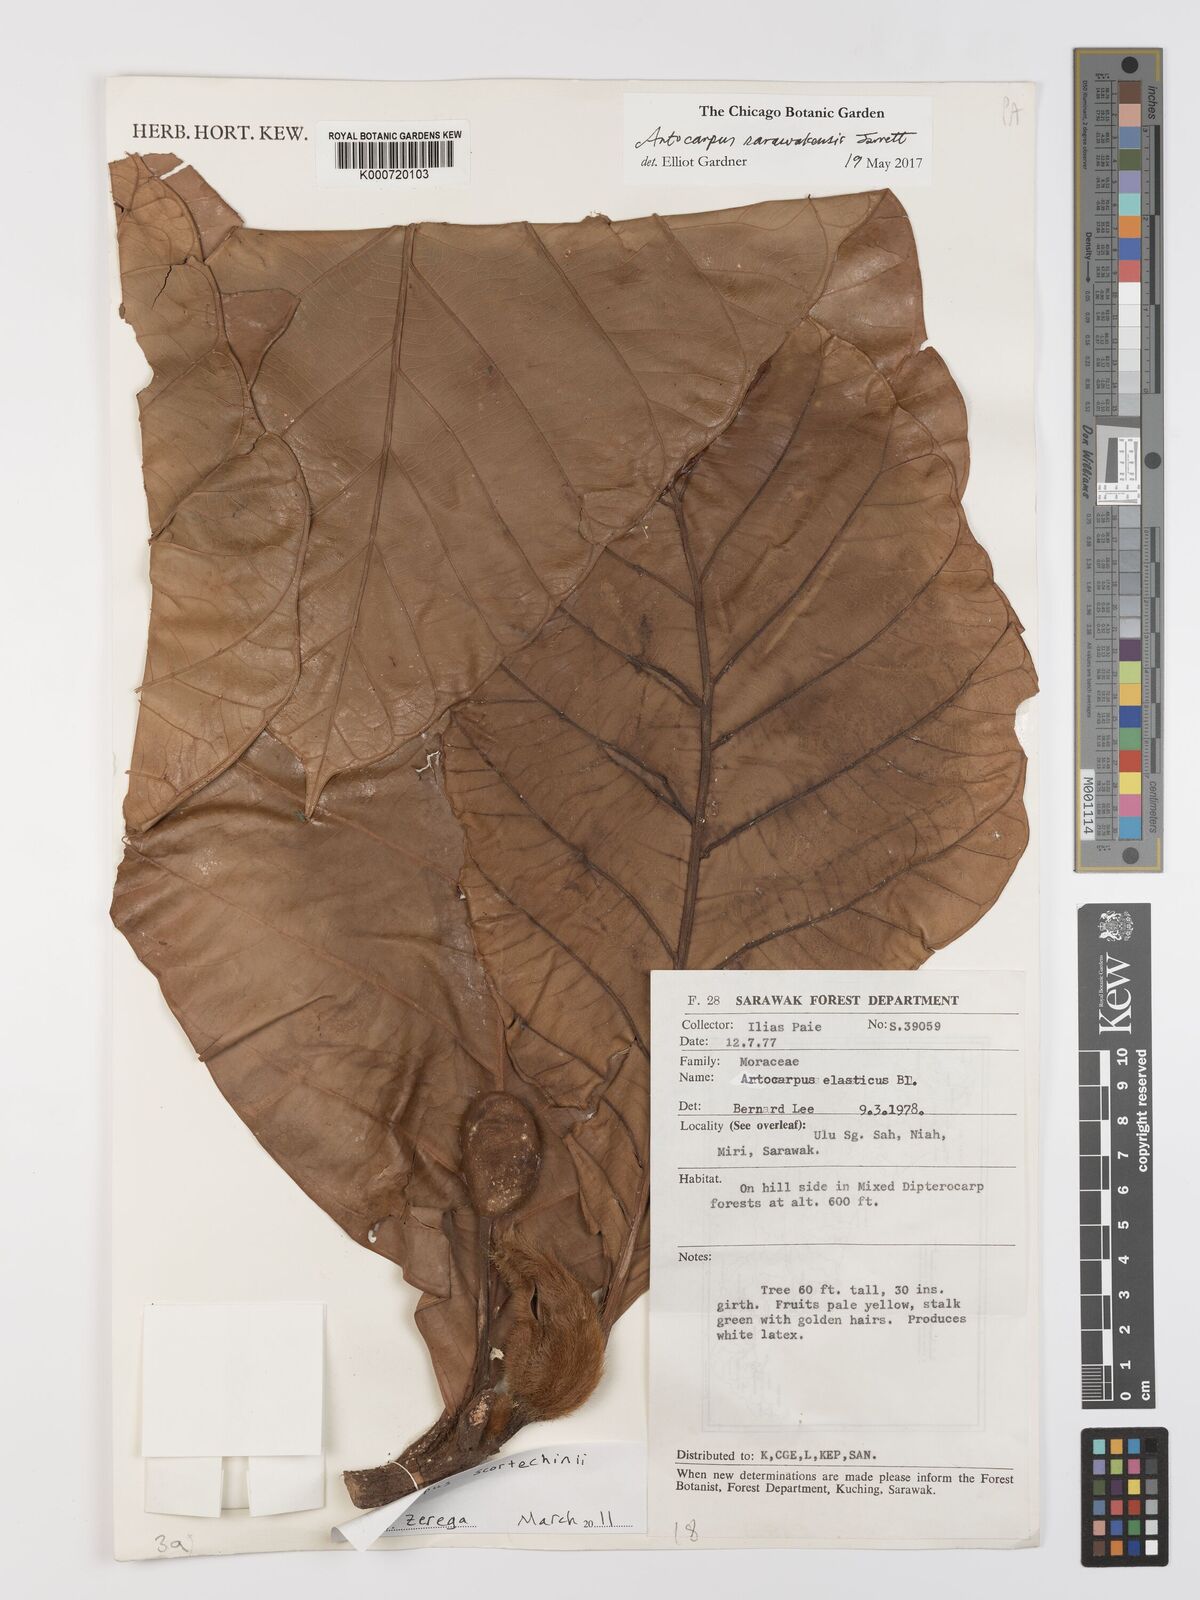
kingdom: Plantae
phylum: Tracheophyta
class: Magnoliopsida
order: Rosales
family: Moraceae
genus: Artocarpus
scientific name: Artocarpus sarawakensis
